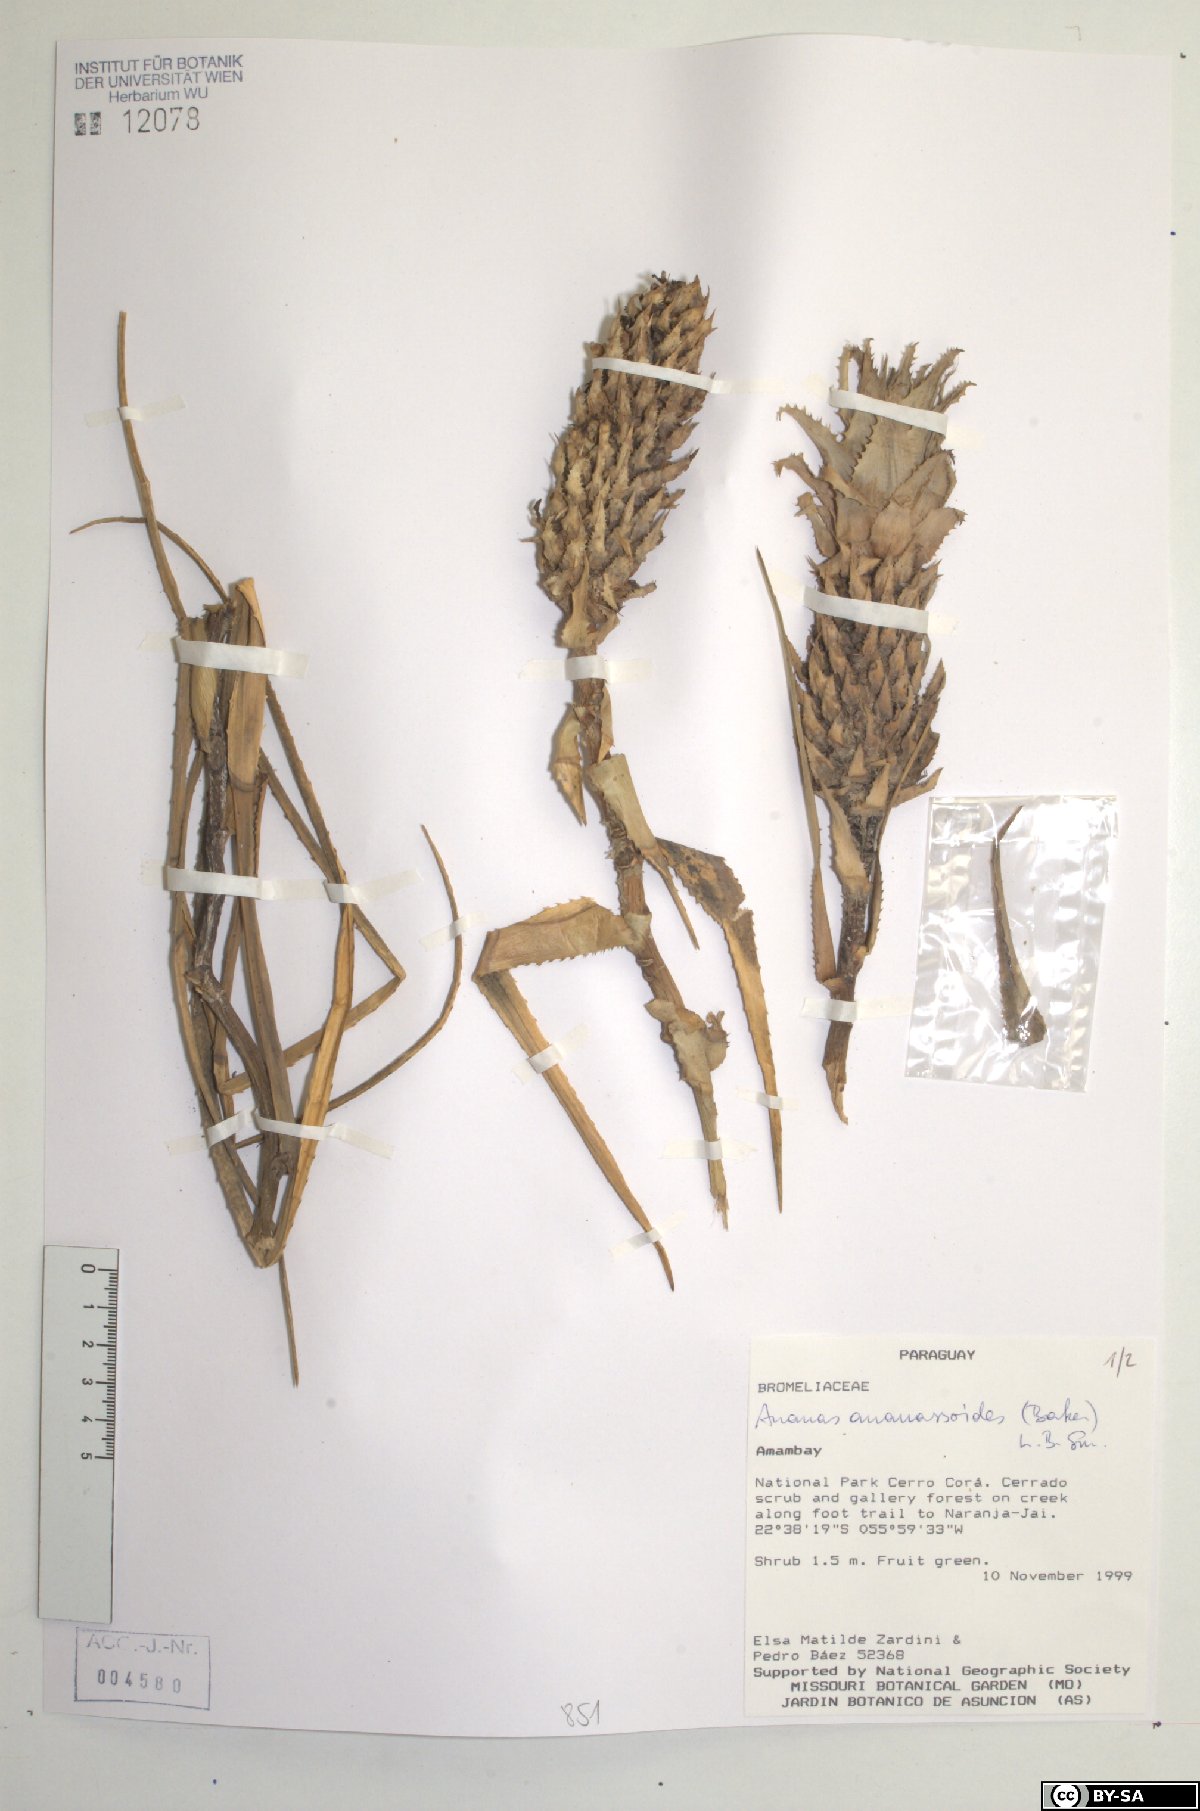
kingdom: Plantae
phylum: Tracheophyta
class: Liliopsida
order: Poales
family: Bromeliaceae
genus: Ananas
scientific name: Ananas comosus
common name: Pineapple
